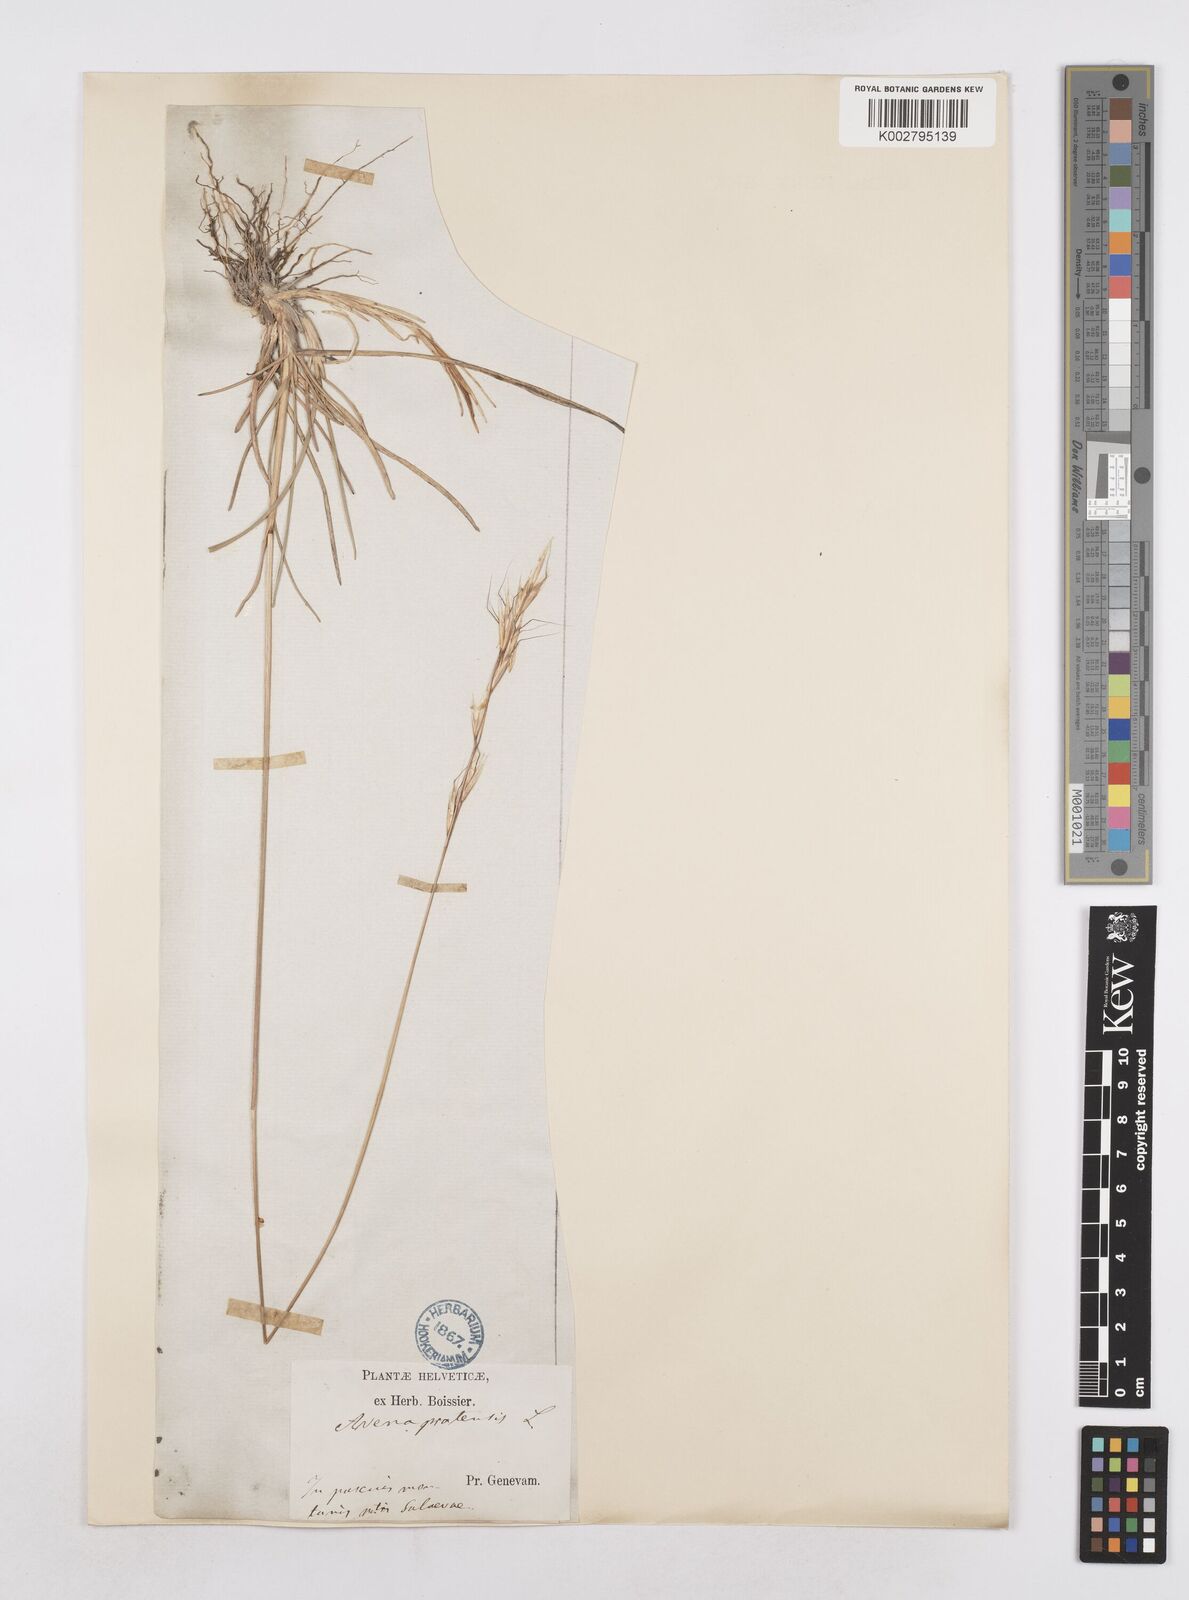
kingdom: Plantae
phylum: Tracheophyta
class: Liliopsida
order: Poales
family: Poaceae
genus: Helictochloa
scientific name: Helictochloa pratensis
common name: Meadow oat grass
